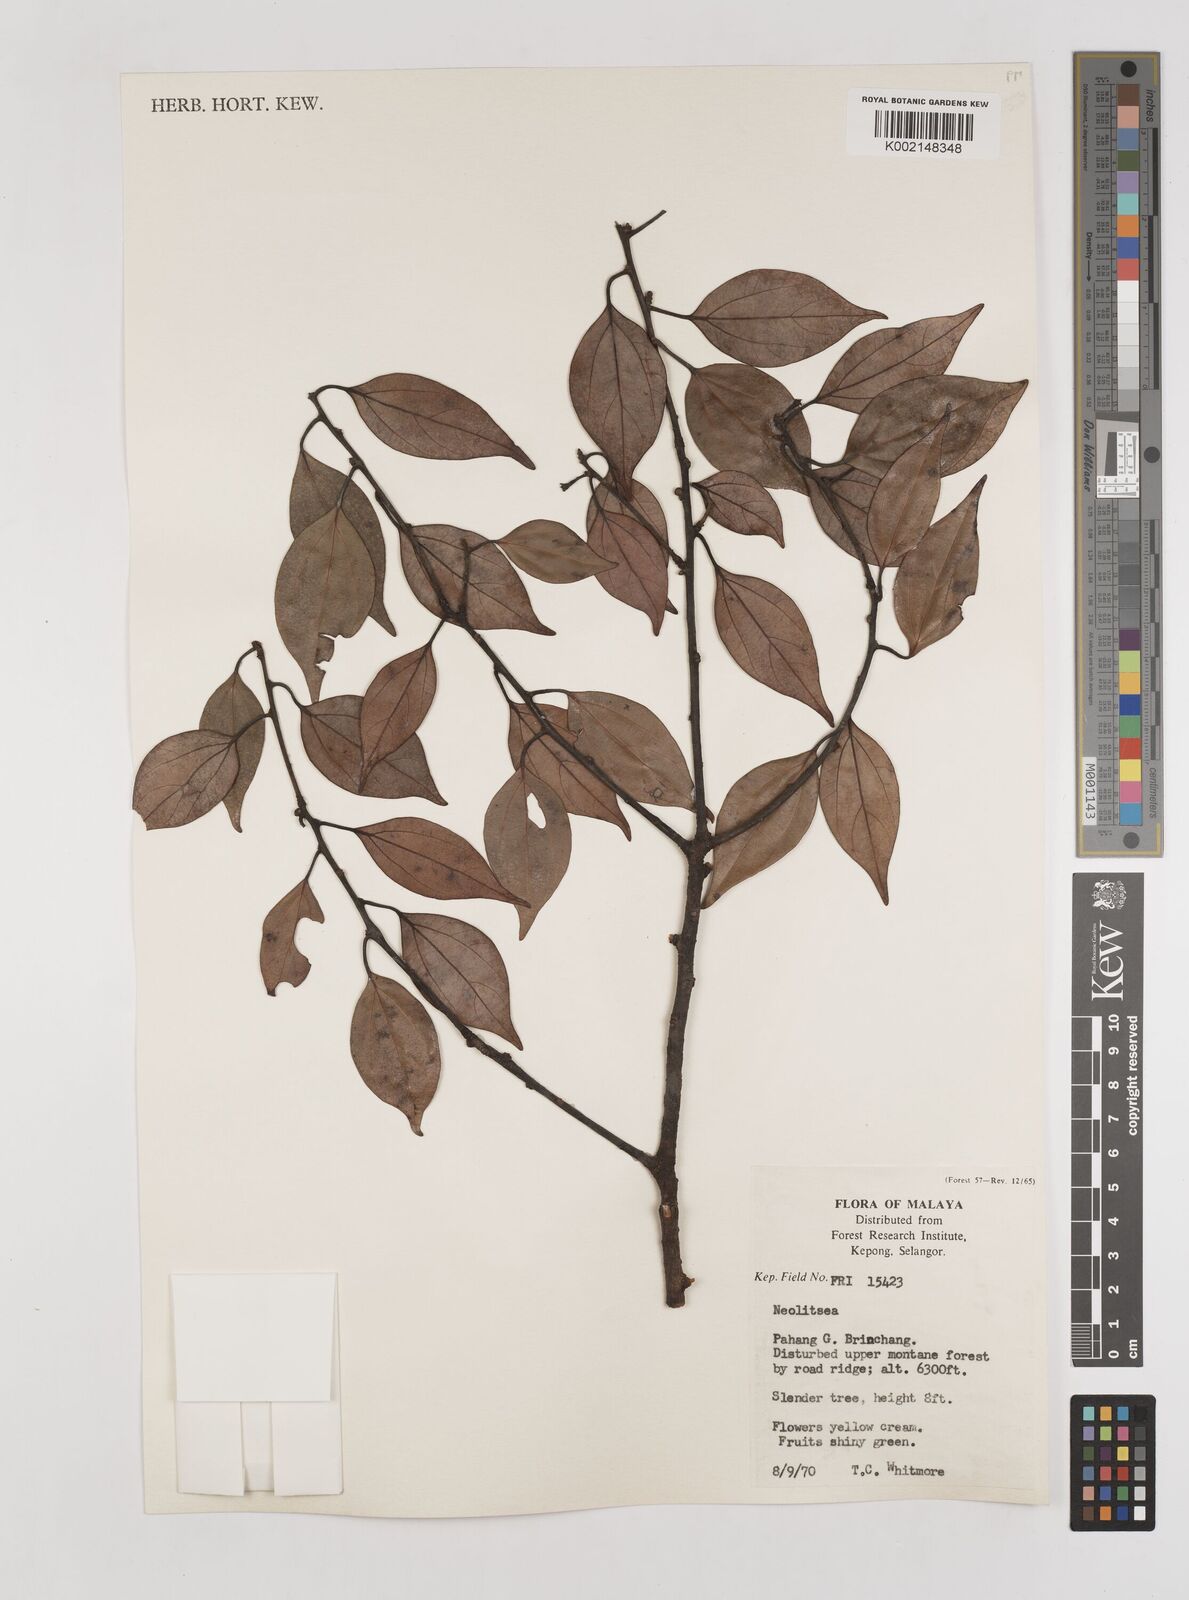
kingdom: Plantae
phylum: Tracheophyta
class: Magnoliopsida
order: Laurales
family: Lauraceae
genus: Neolitsea
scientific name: Neolitsea
